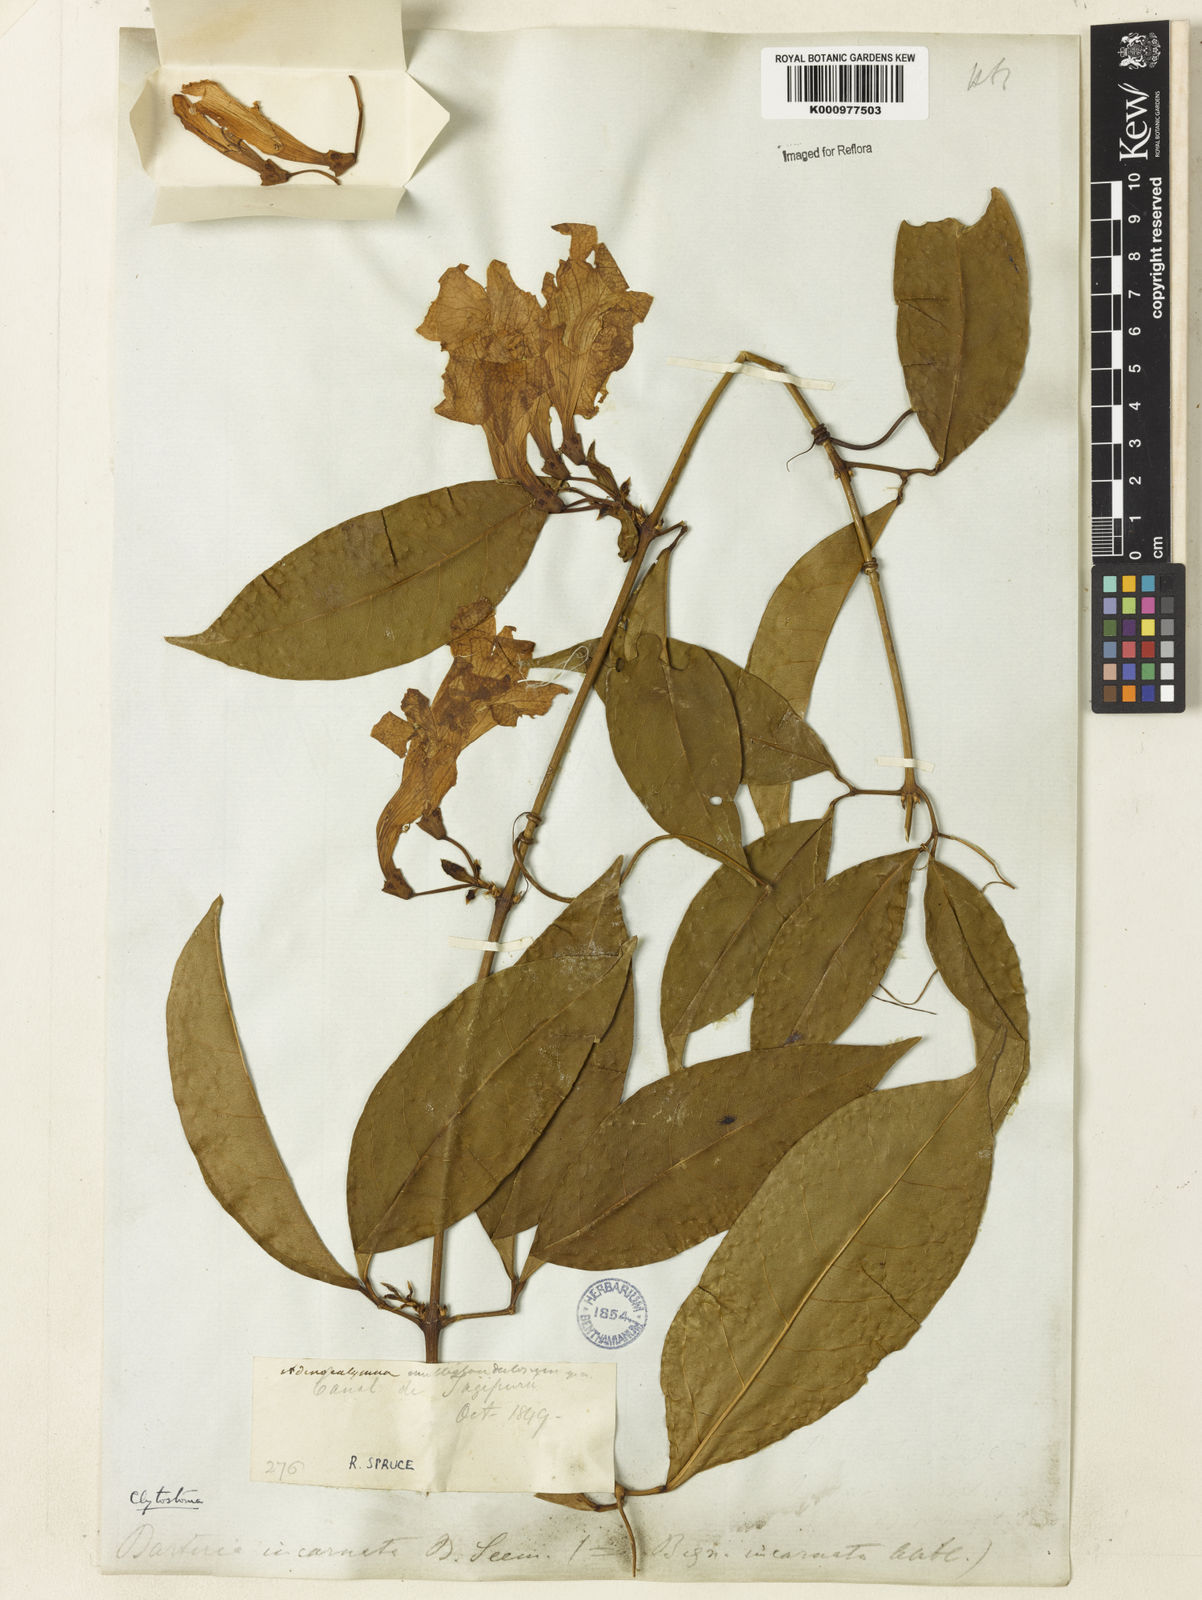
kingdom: Plantae
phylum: Tracheophyta
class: Magnoliopsida
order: Lamiales
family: Bignoniaceae
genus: Bignonia
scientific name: Bignonia binata
